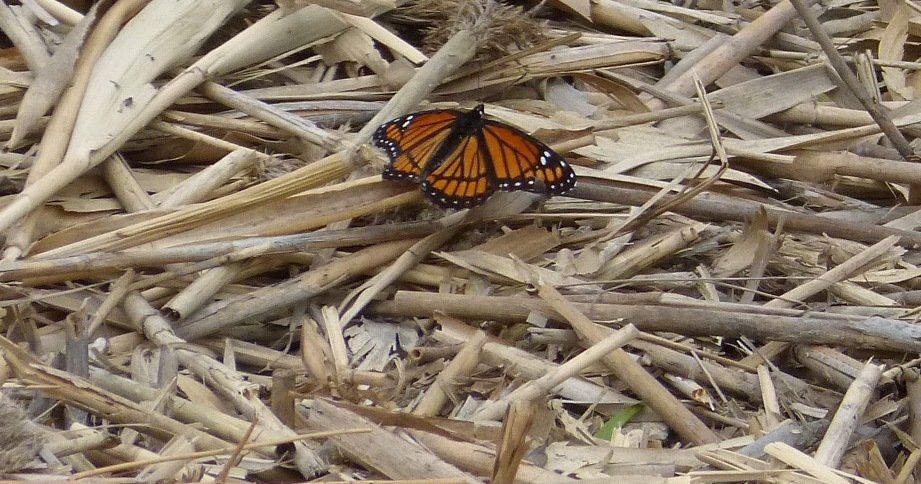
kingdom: Animalia
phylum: Arthropoda
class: Insecta
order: Lepidoptera
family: Nymphalidae
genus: Limenitis
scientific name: Limenitis archippus
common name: Viceroy
